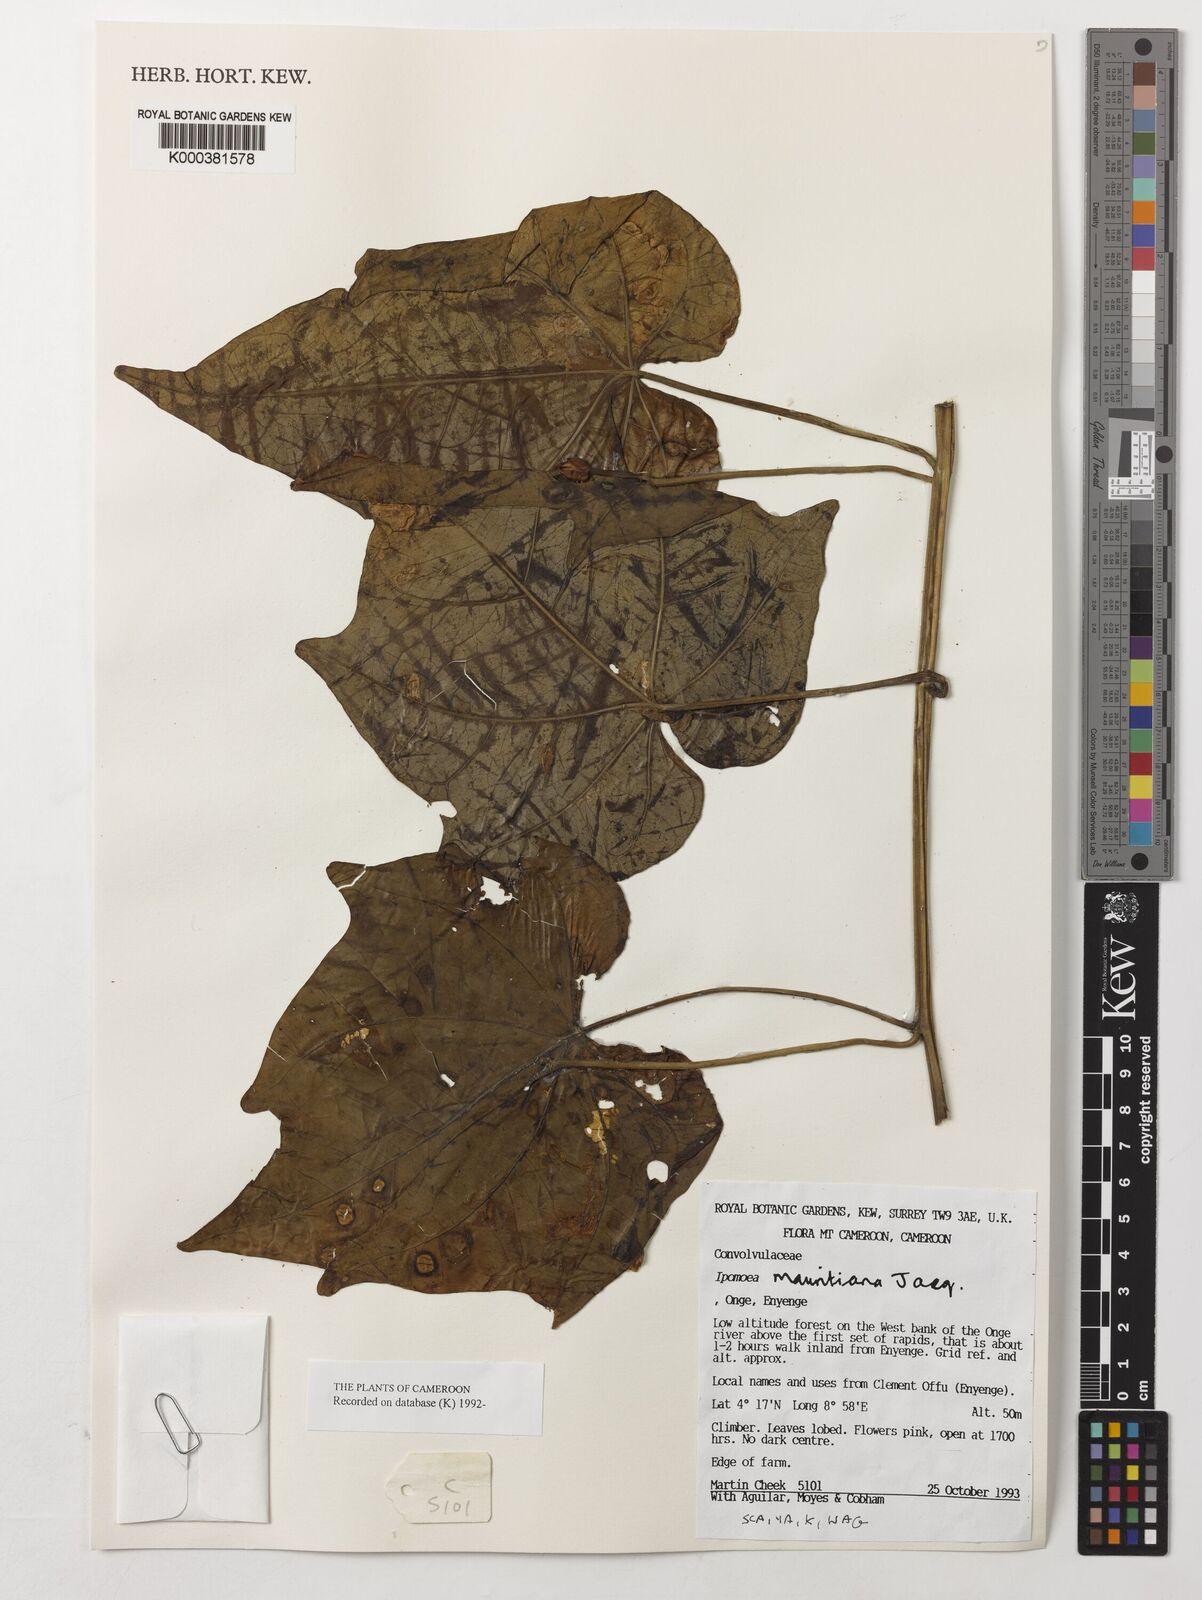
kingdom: Plantae
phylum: Tracheophyta
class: Magnoliopsida
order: Solanales
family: Convolvulaceae
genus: Ipomoea
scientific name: Ipomoea mauritiana
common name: Mauritanian convolvulus
